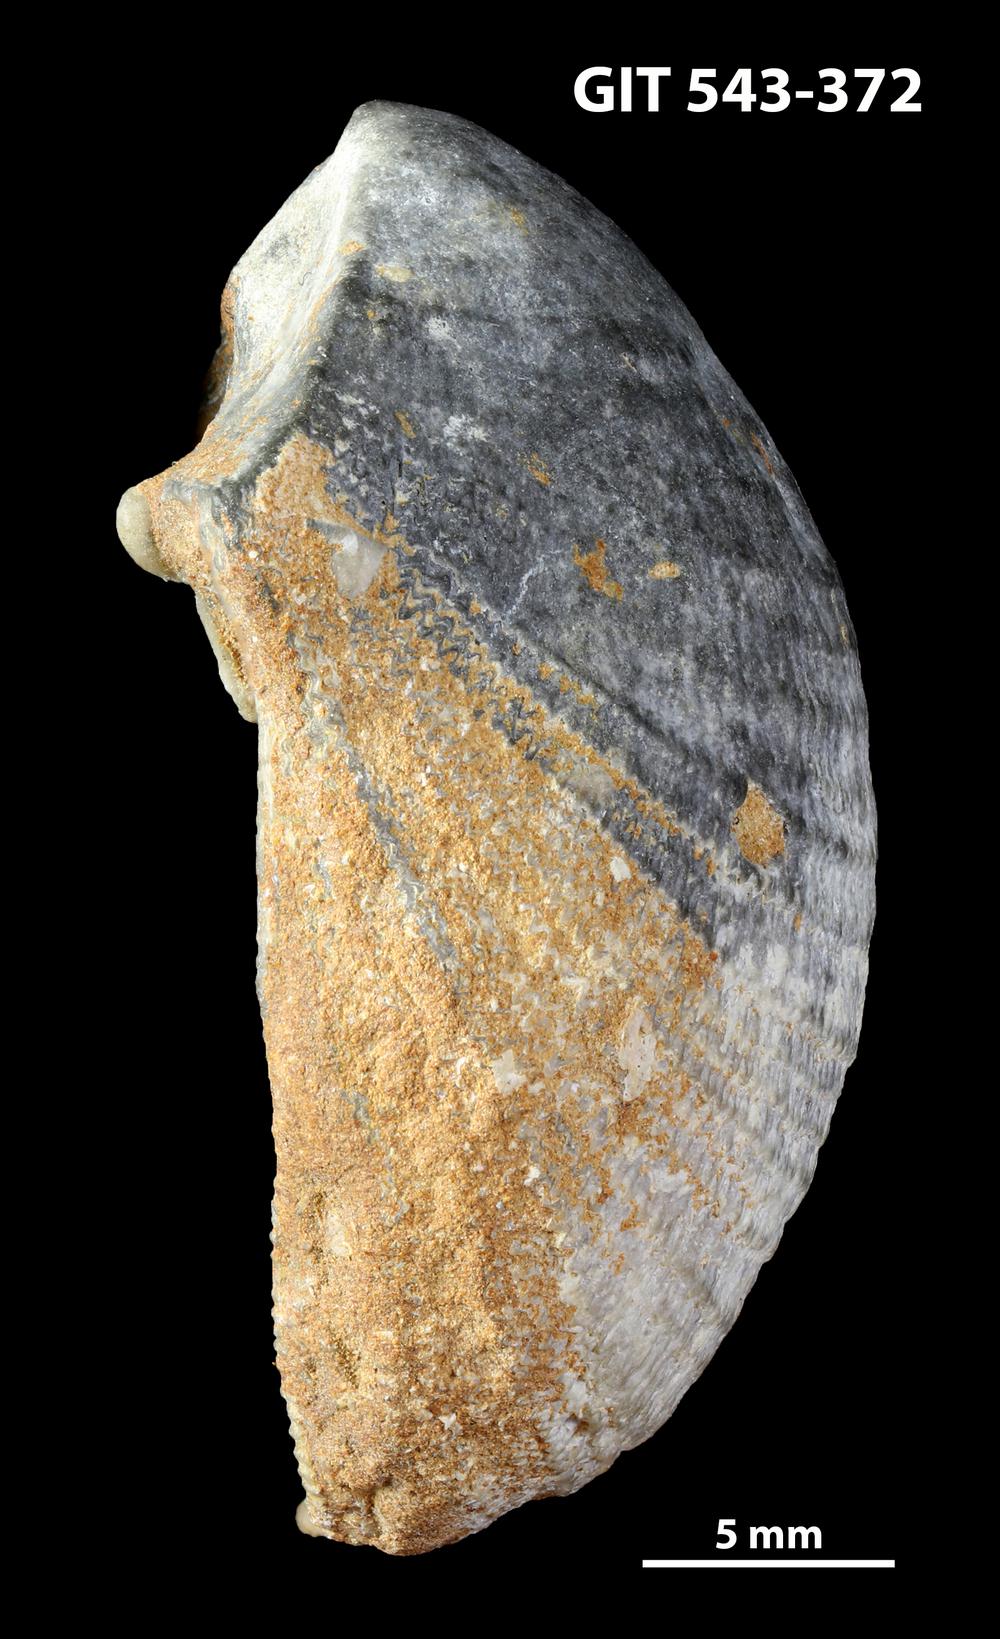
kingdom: Animalia
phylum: Brachiopoda
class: Rhynchonellata
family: Clitambonitidae
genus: Clitambonites
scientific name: Clitambonites squamatus
